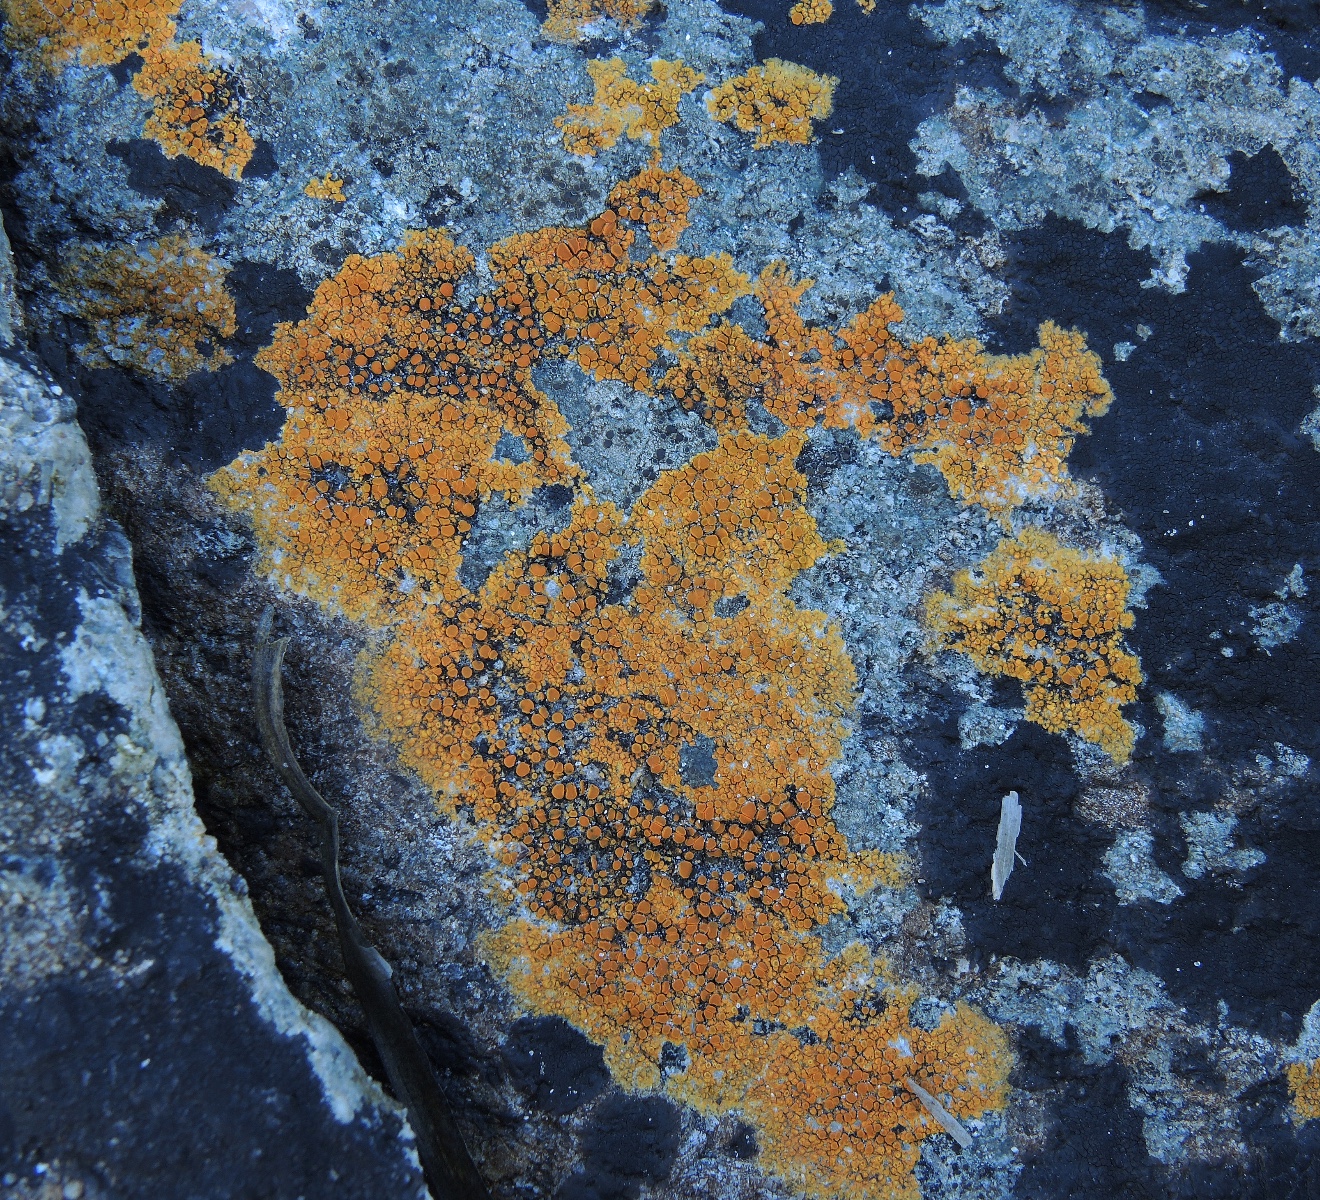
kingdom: Fungi
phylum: Ascomycota
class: Lecanoromycetes
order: Teloschistales
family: Teloschistaceae
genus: Flavoplaca
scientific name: Flavoplaca marina
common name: strand-orangelav
